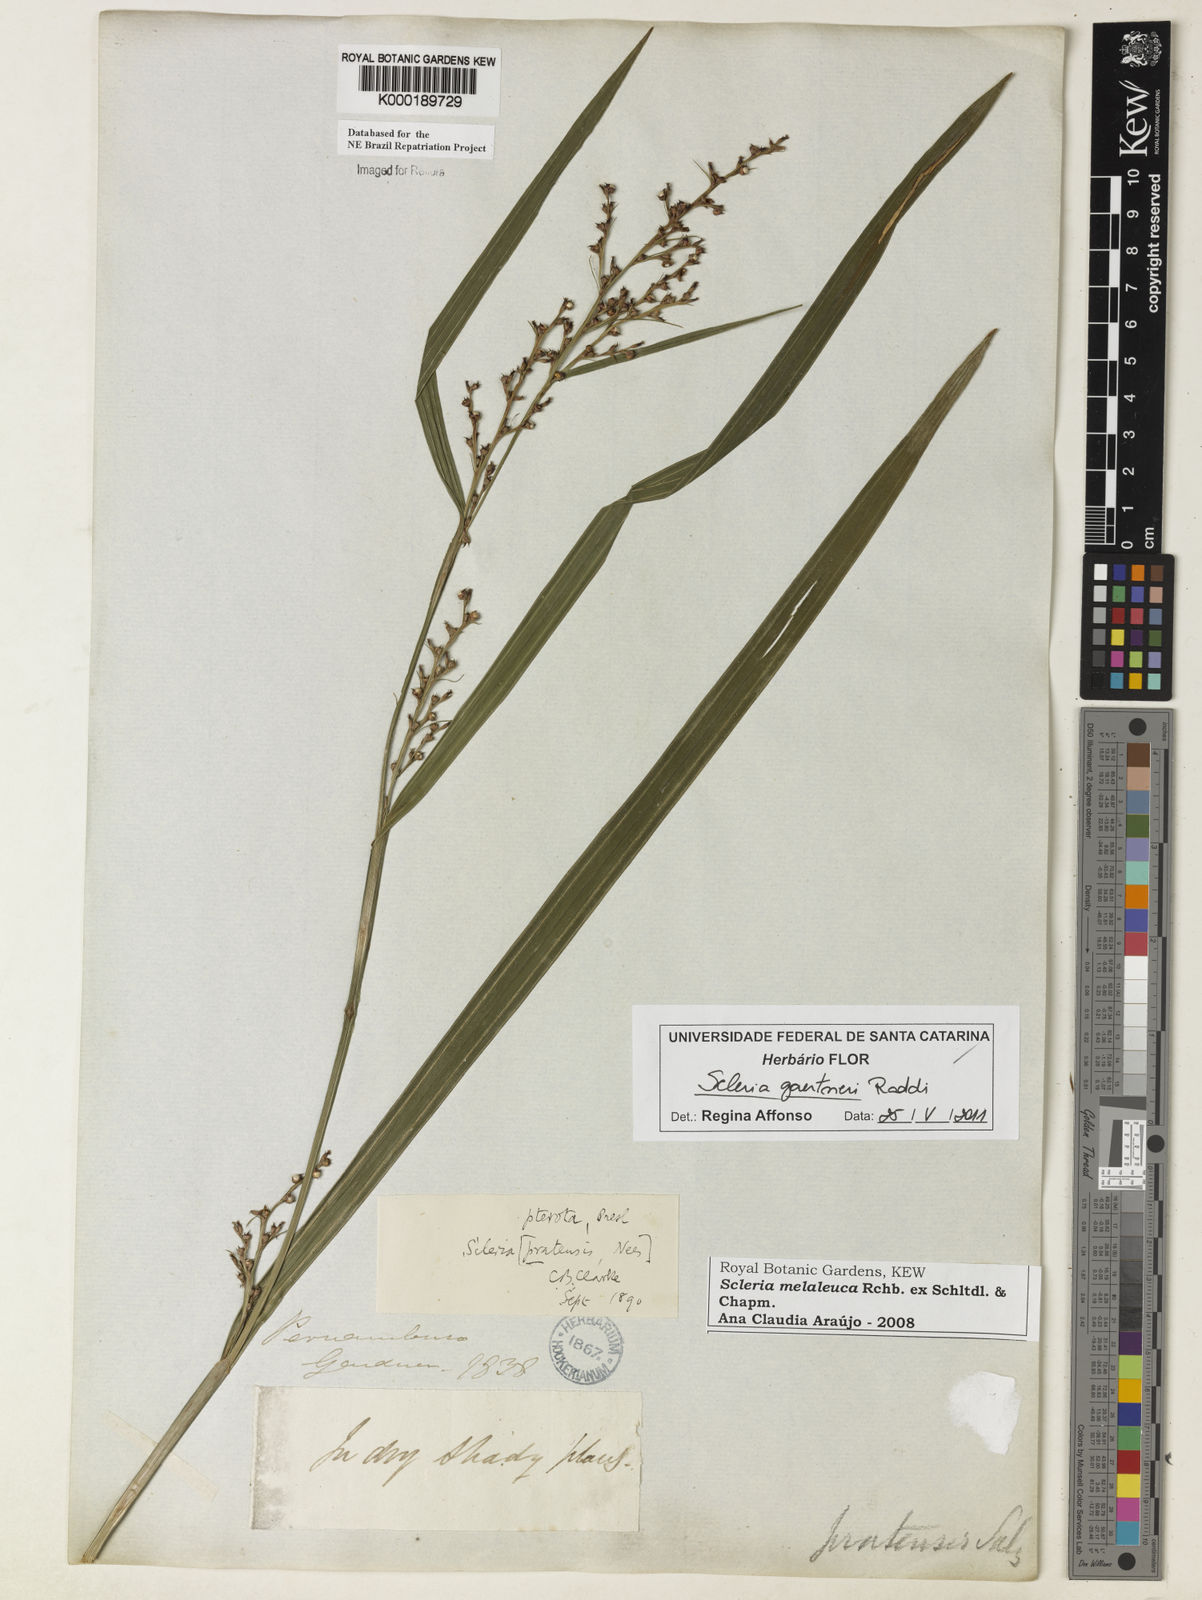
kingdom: Plantae
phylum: Tracheophyta
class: Liliopsida
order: Poales
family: Cyperaceae
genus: Scleria
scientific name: Scleria gaertneri
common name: Cortadera blanca
